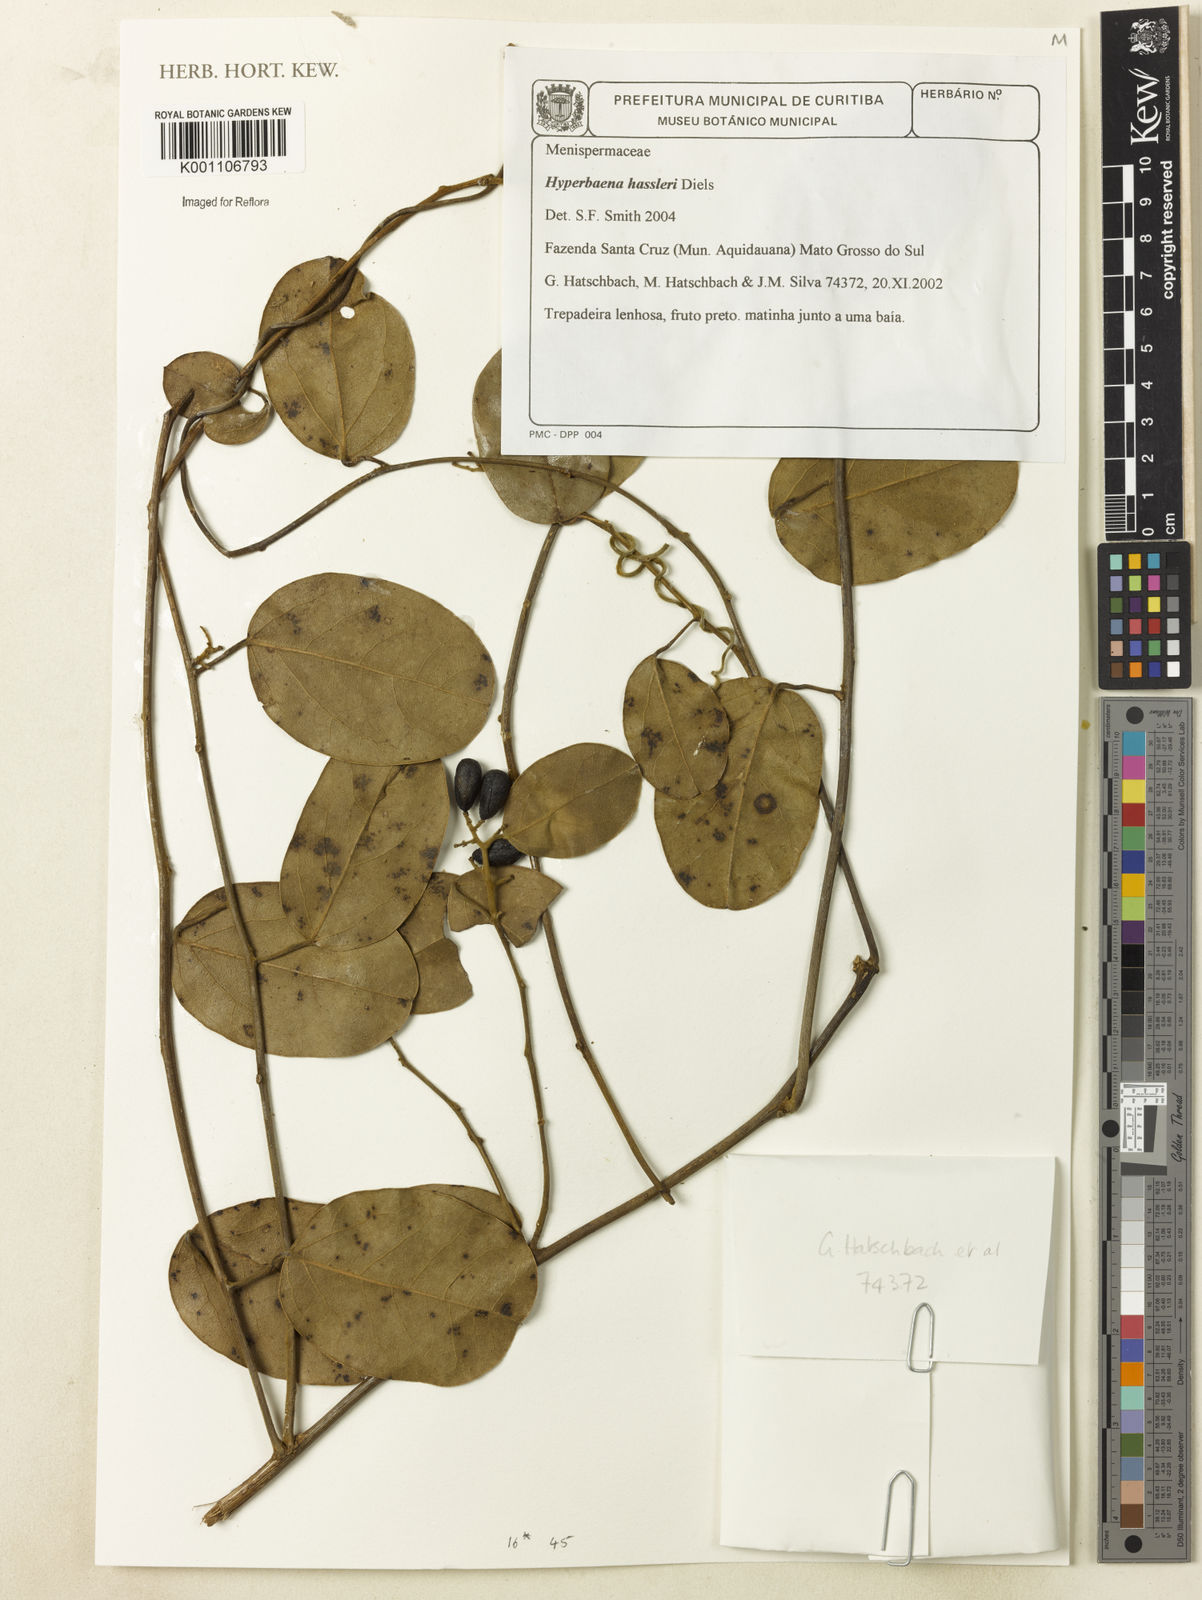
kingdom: Plantae
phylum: Tracheophyta
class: Magnoliopsida
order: Ranunculales
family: Menispermaceae
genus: Hyperbaena
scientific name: Hyperbaena hassleri
